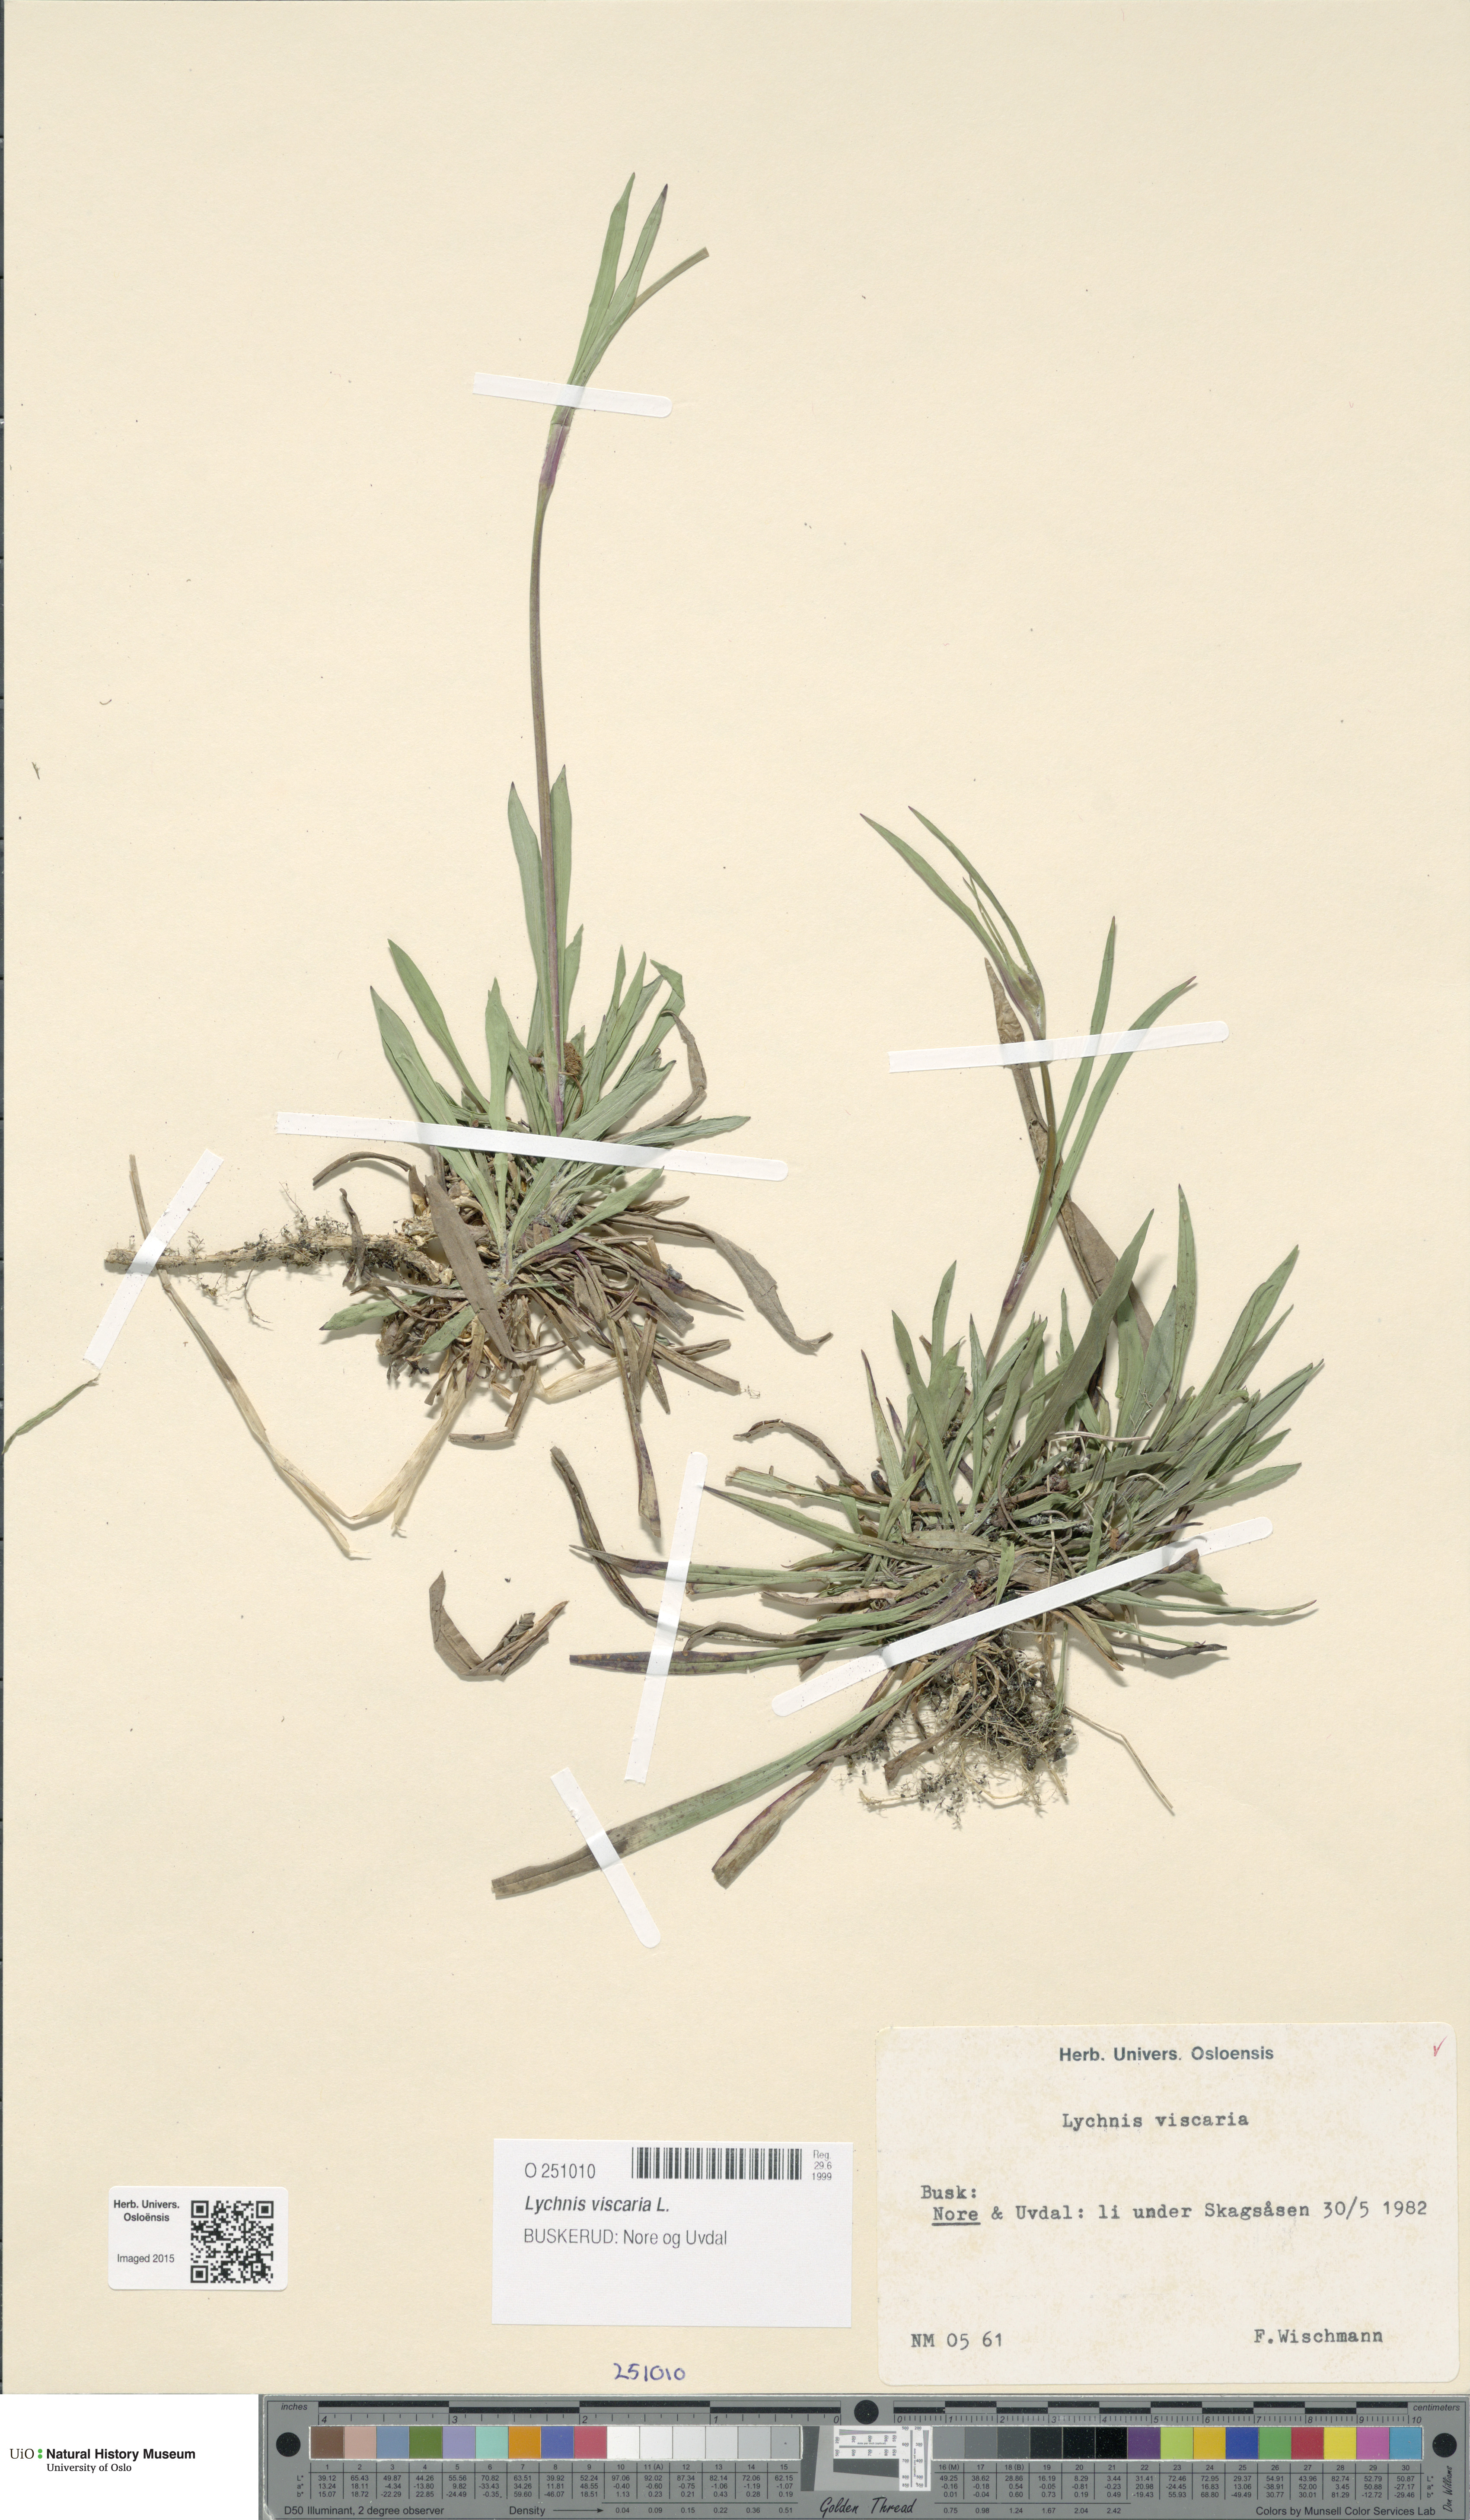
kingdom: Plantae
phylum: Tracheophyta
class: Magnoliopsida
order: Caryophyllales
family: Caryophyllaceae
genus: Viscaria
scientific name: Viscaria vulgaris
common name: Clammy campion
